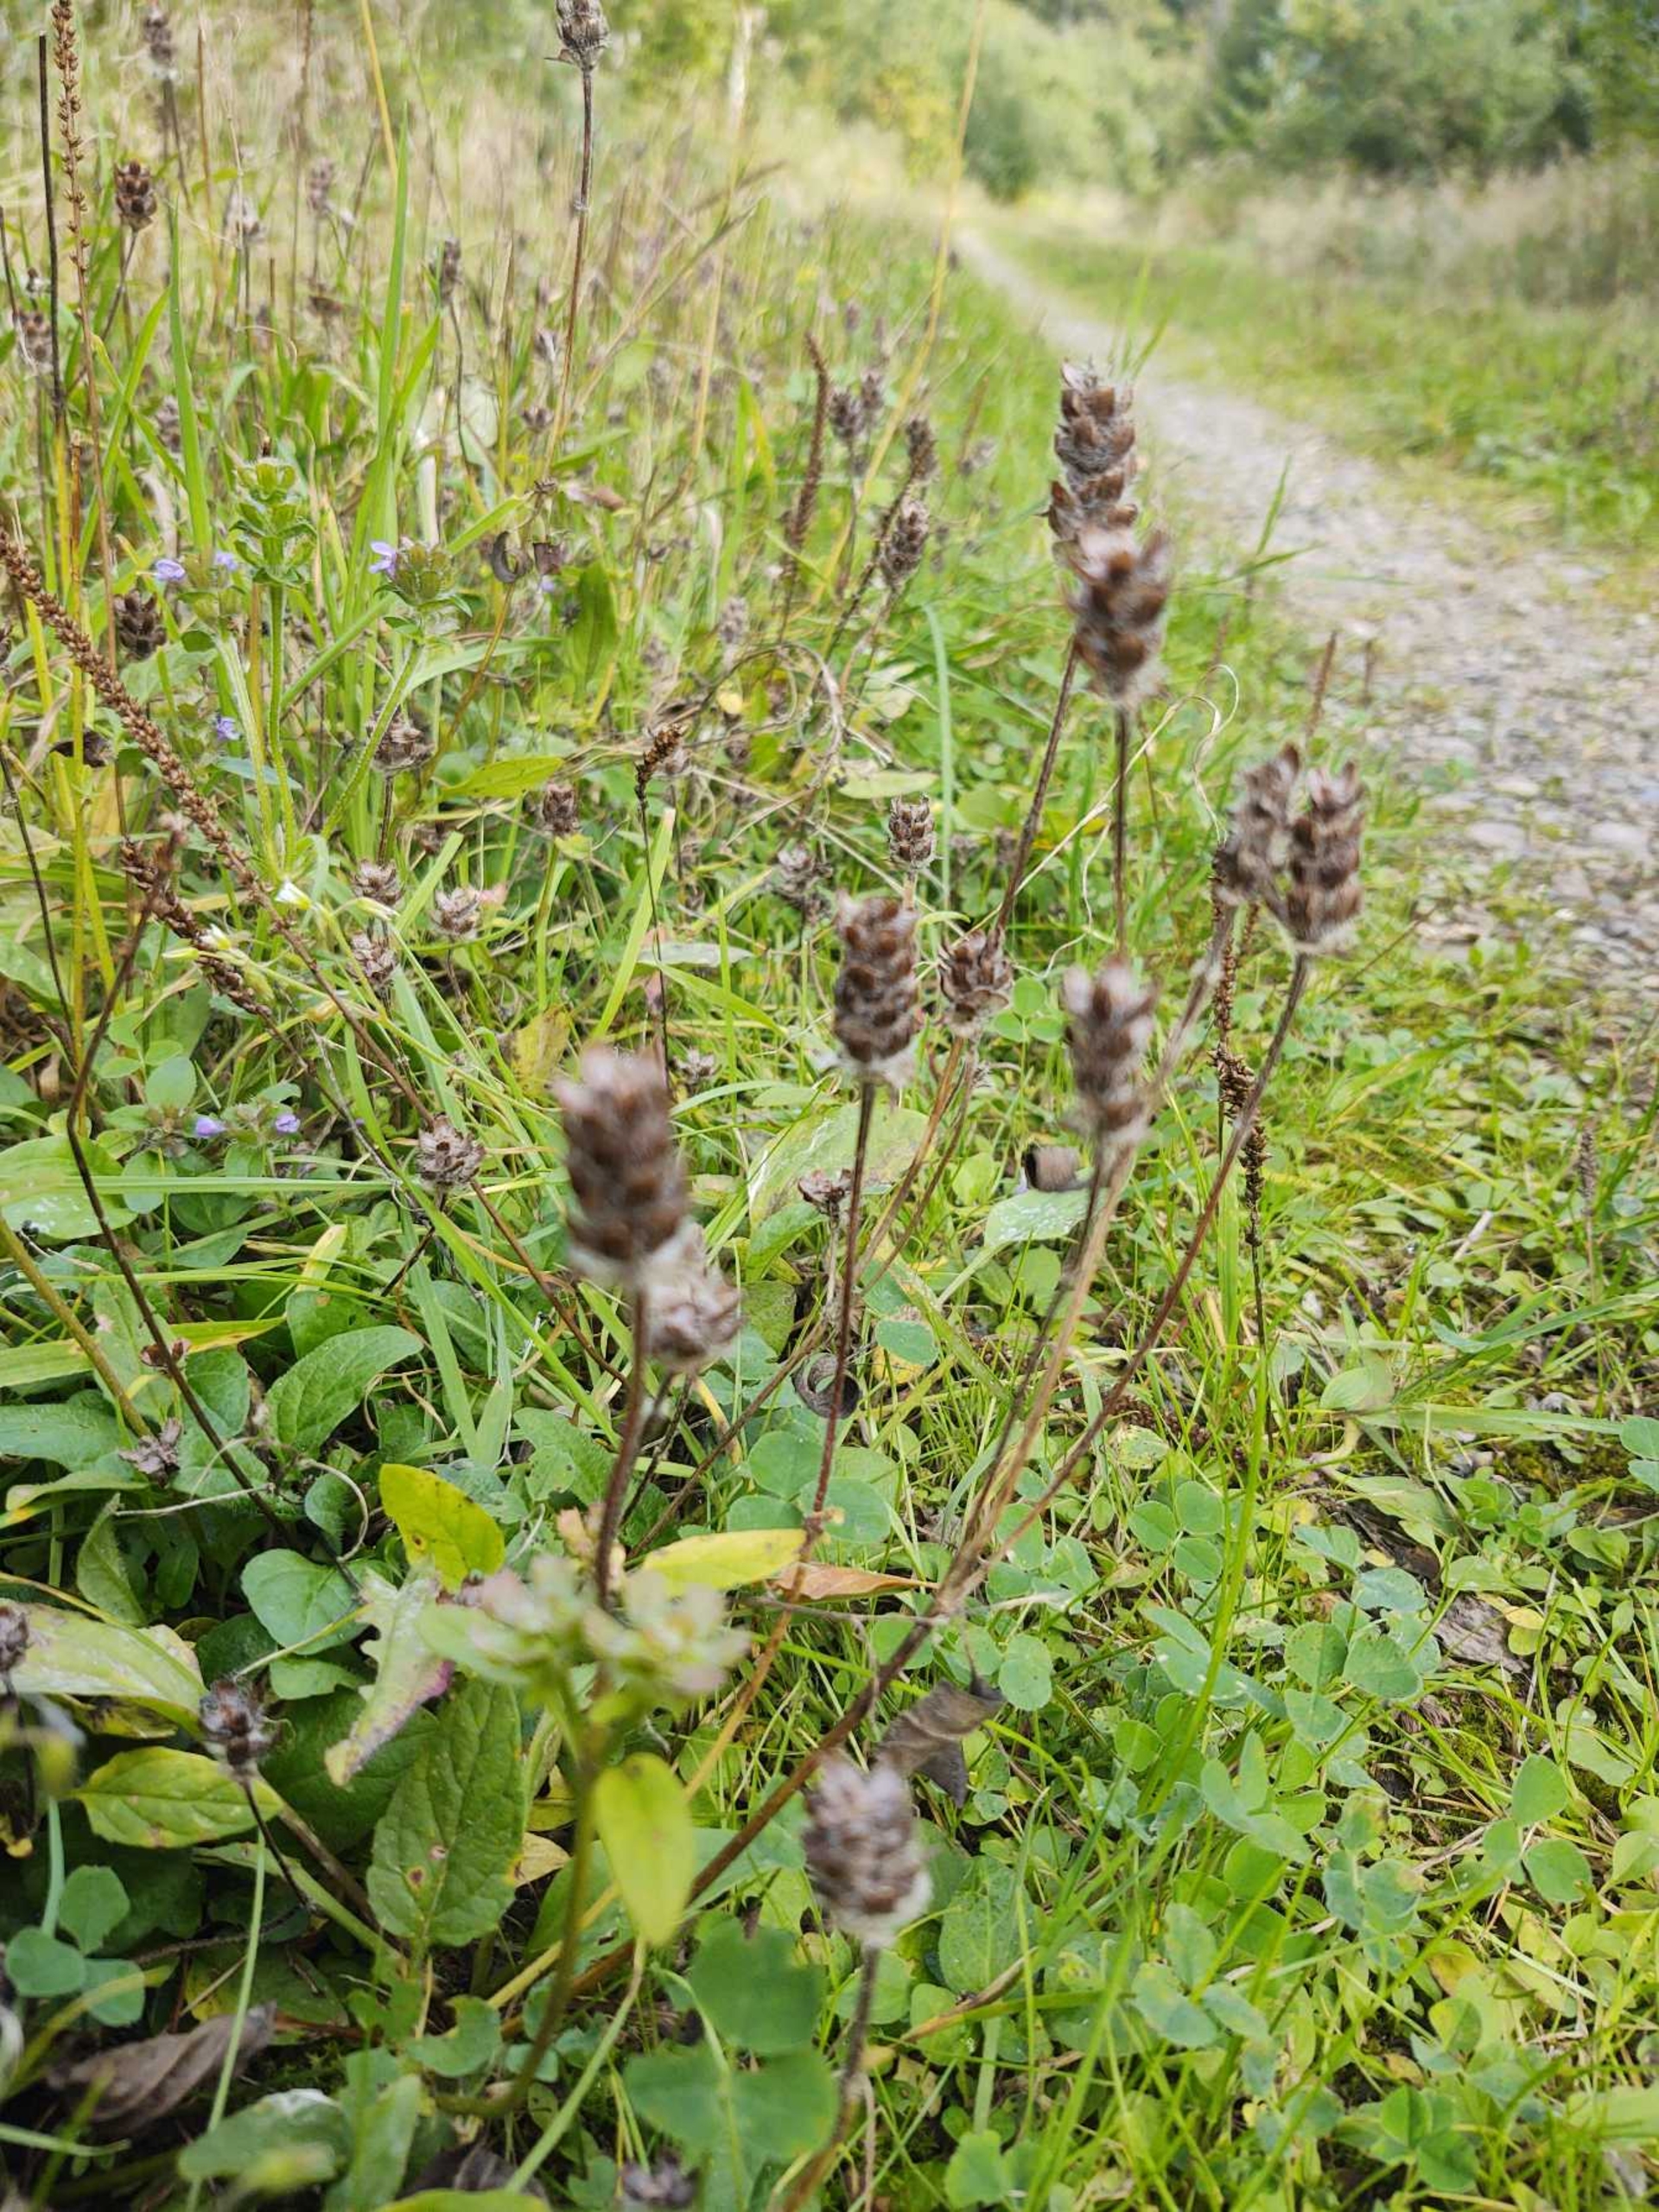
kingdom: Plantae
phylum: Tracheophyta
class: Magnoliopsida
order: Lamiales
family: Lamiaceae
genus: Prunella
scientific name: Prunella vulgaris
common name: Almindelig brunelle
